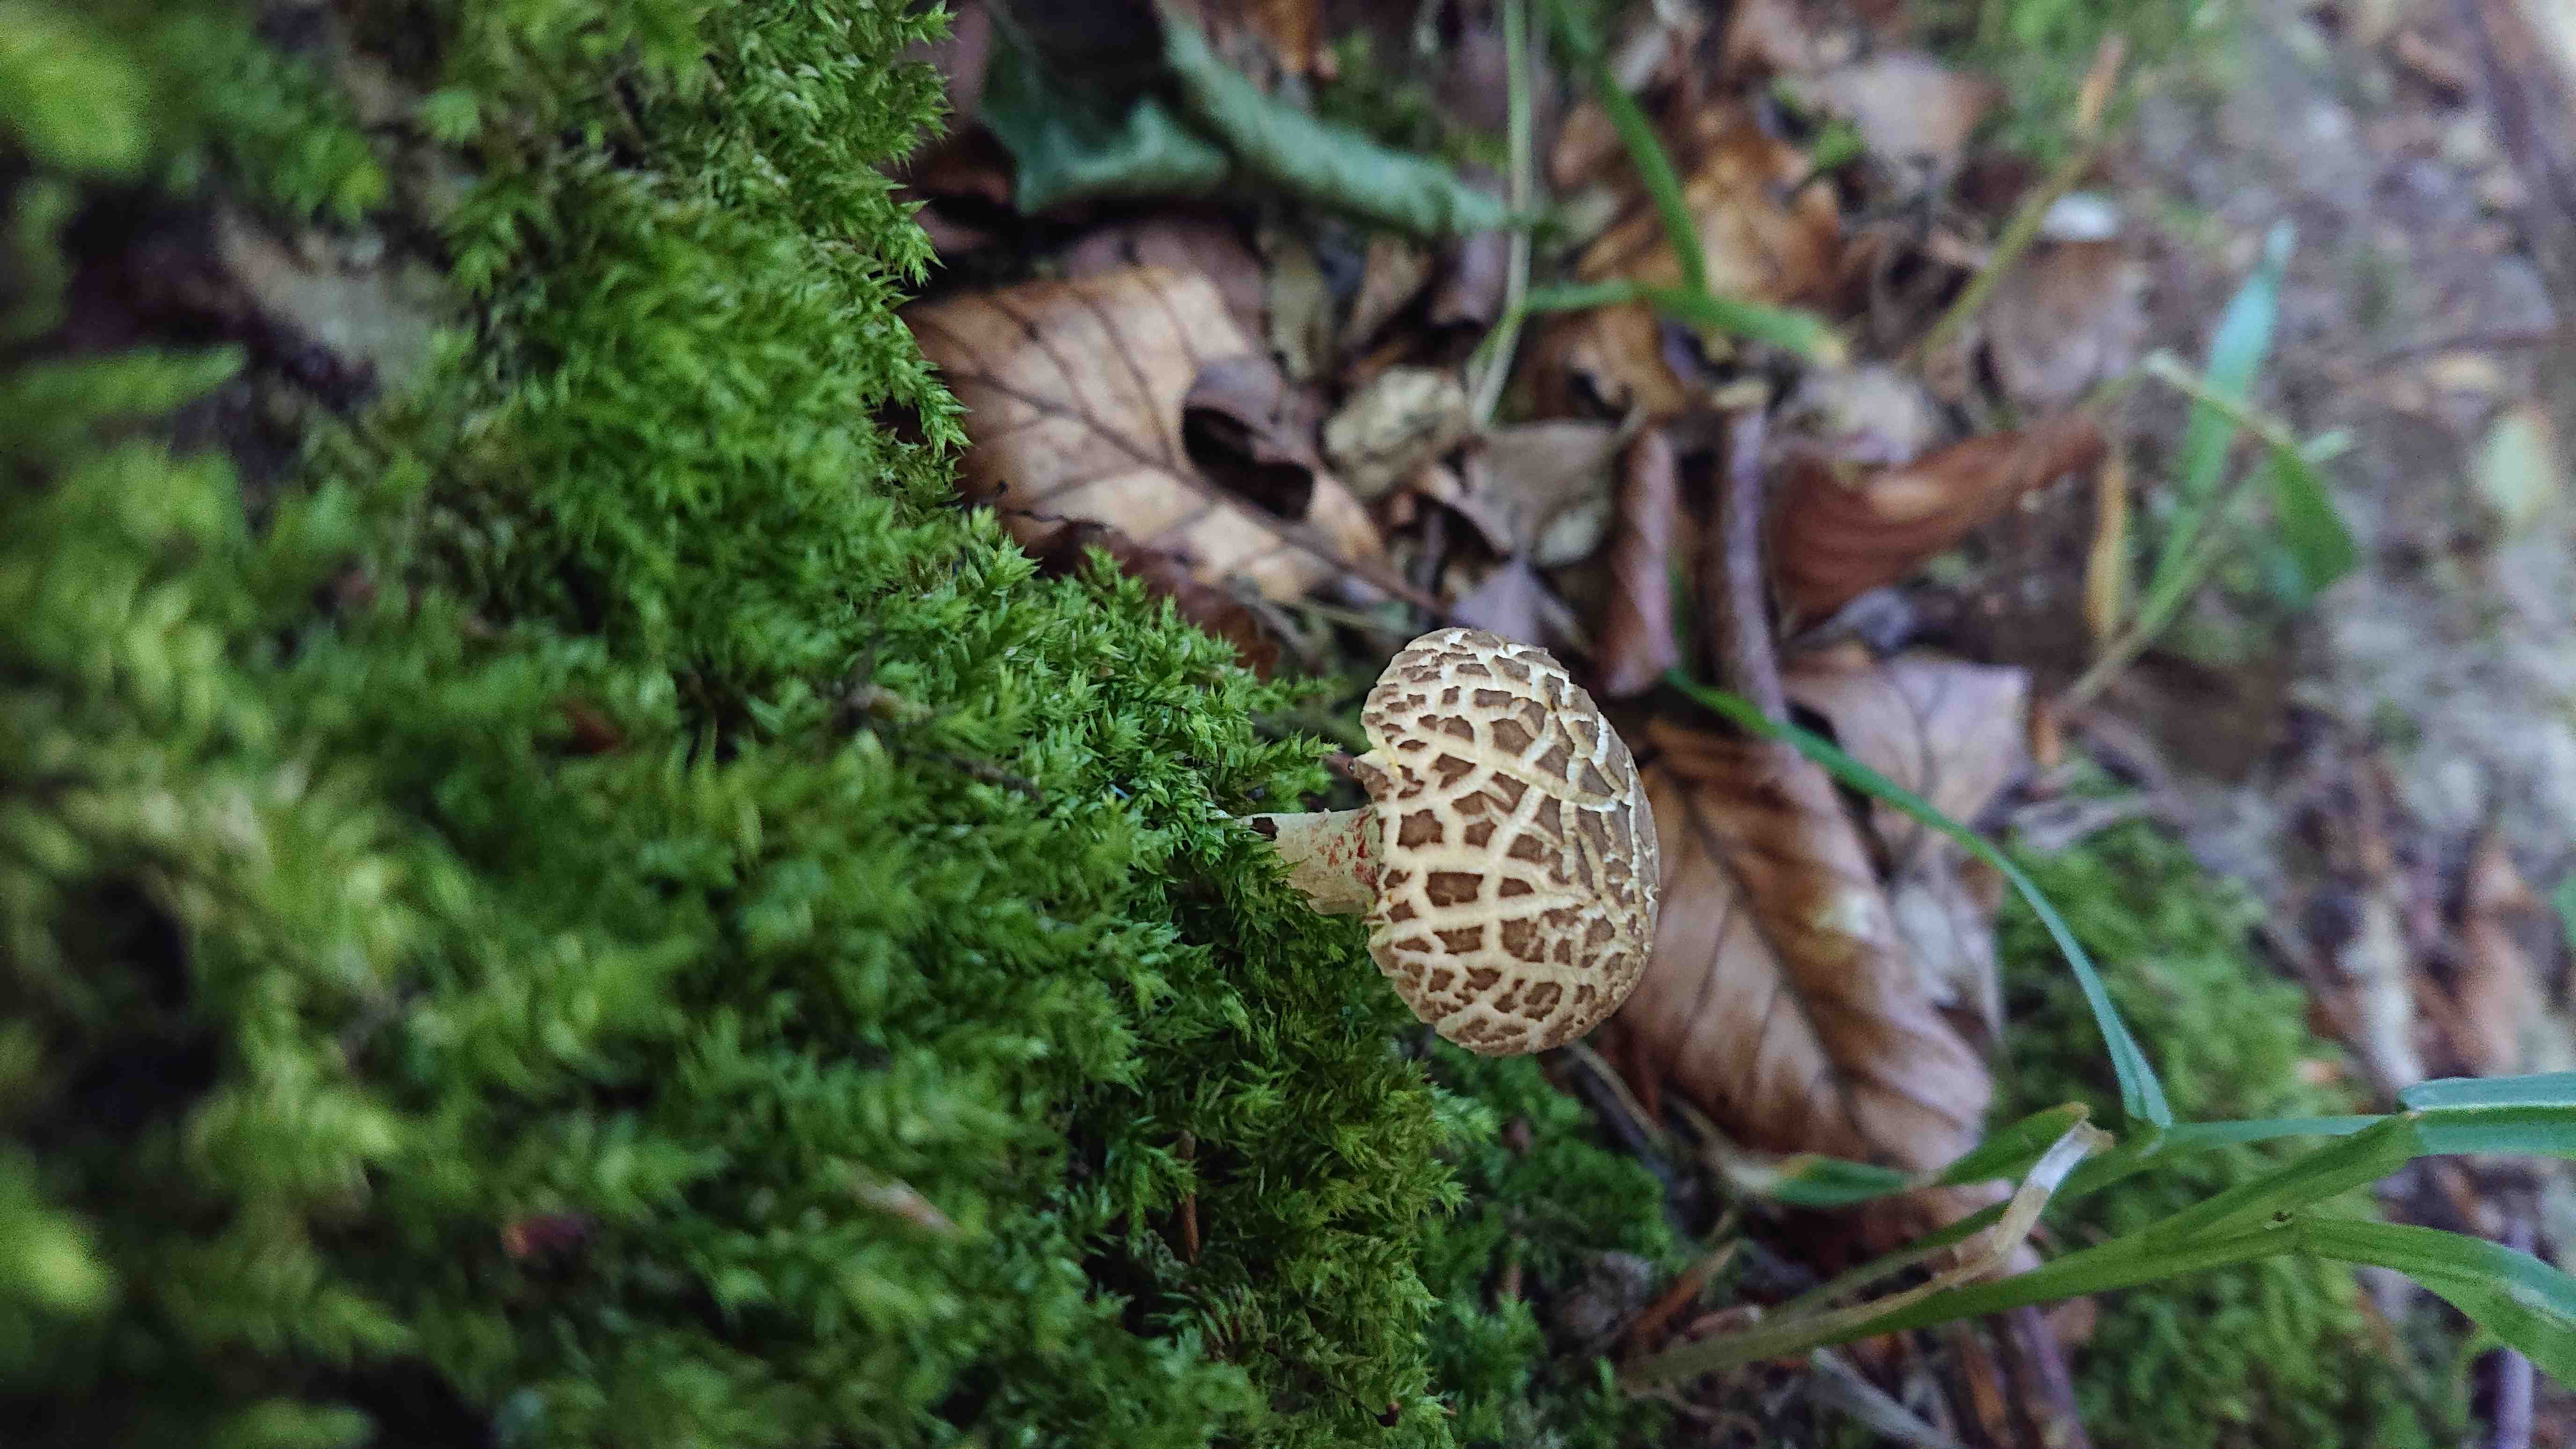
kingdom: Fungi
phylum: Basidiomycota
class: Agaricomycetes
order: Boletales
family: Boletaceae
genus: Xerocomellus
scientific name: Xerocomellus
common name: dværgrørhat
